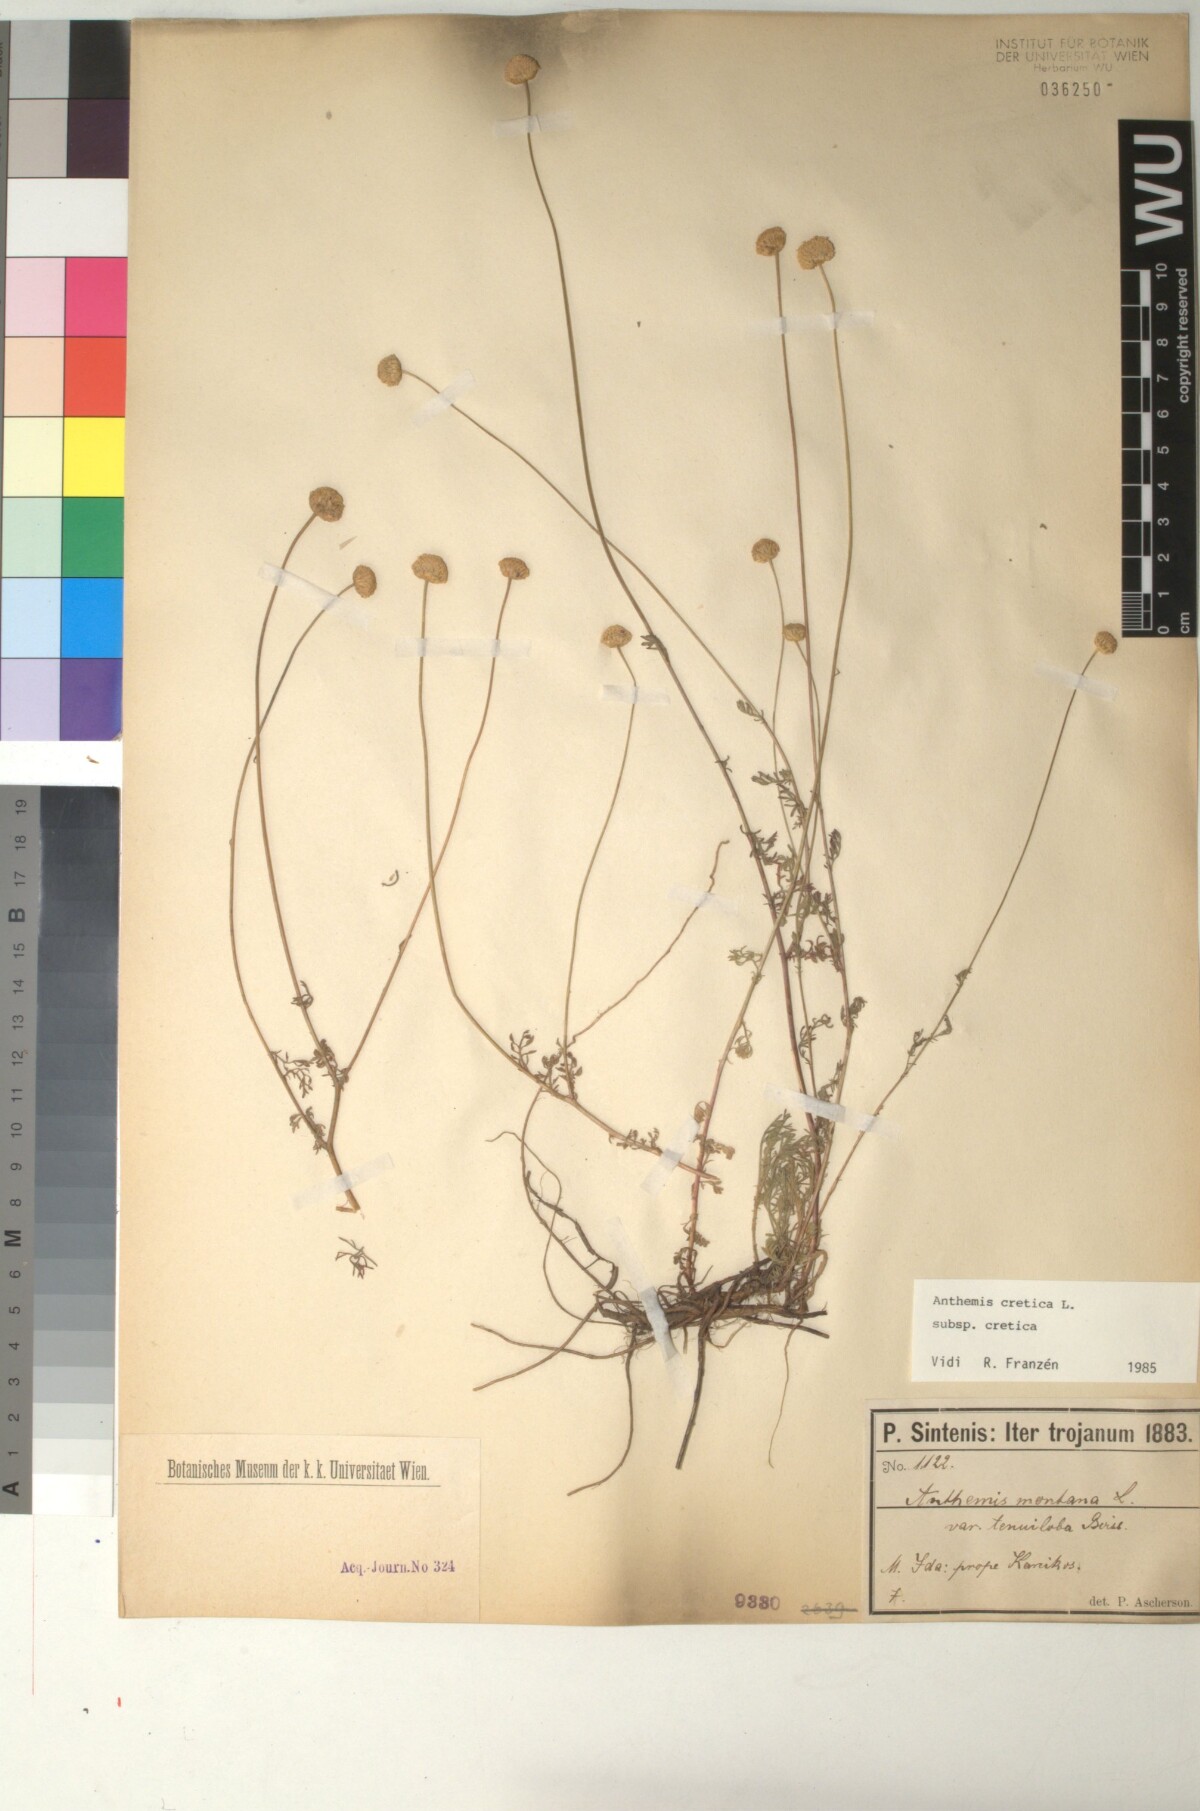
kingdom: Plantae
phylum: Tracheophyta
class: Magnoliopsida
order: Asterales
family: Asteraceae
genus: Anthemis
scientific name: Anthemis cretica
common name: Mountain dog-daisy
